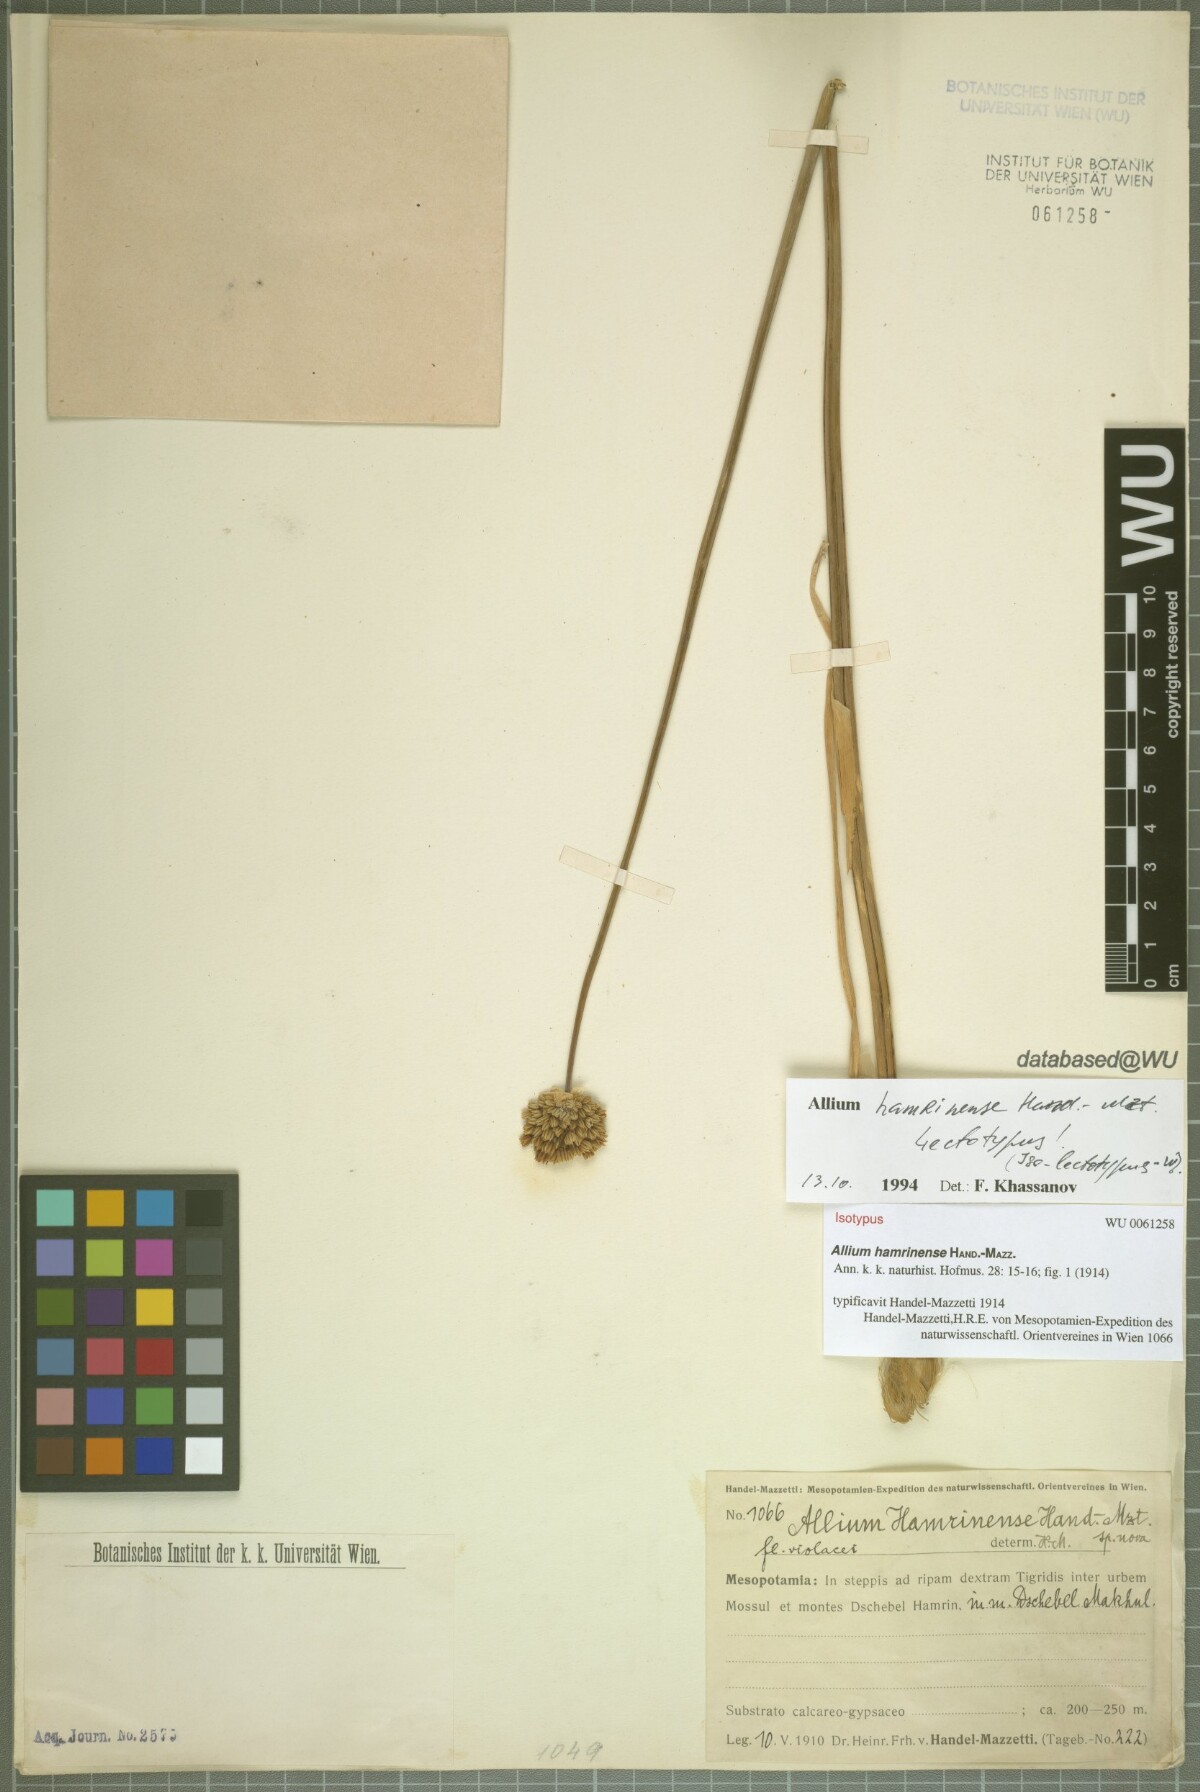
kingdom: Plantae
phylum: Tracheophyta
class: Liliopsida
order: Asparagales
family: Amaryllidaceae
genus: Allium
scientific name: Allium hamrinense
